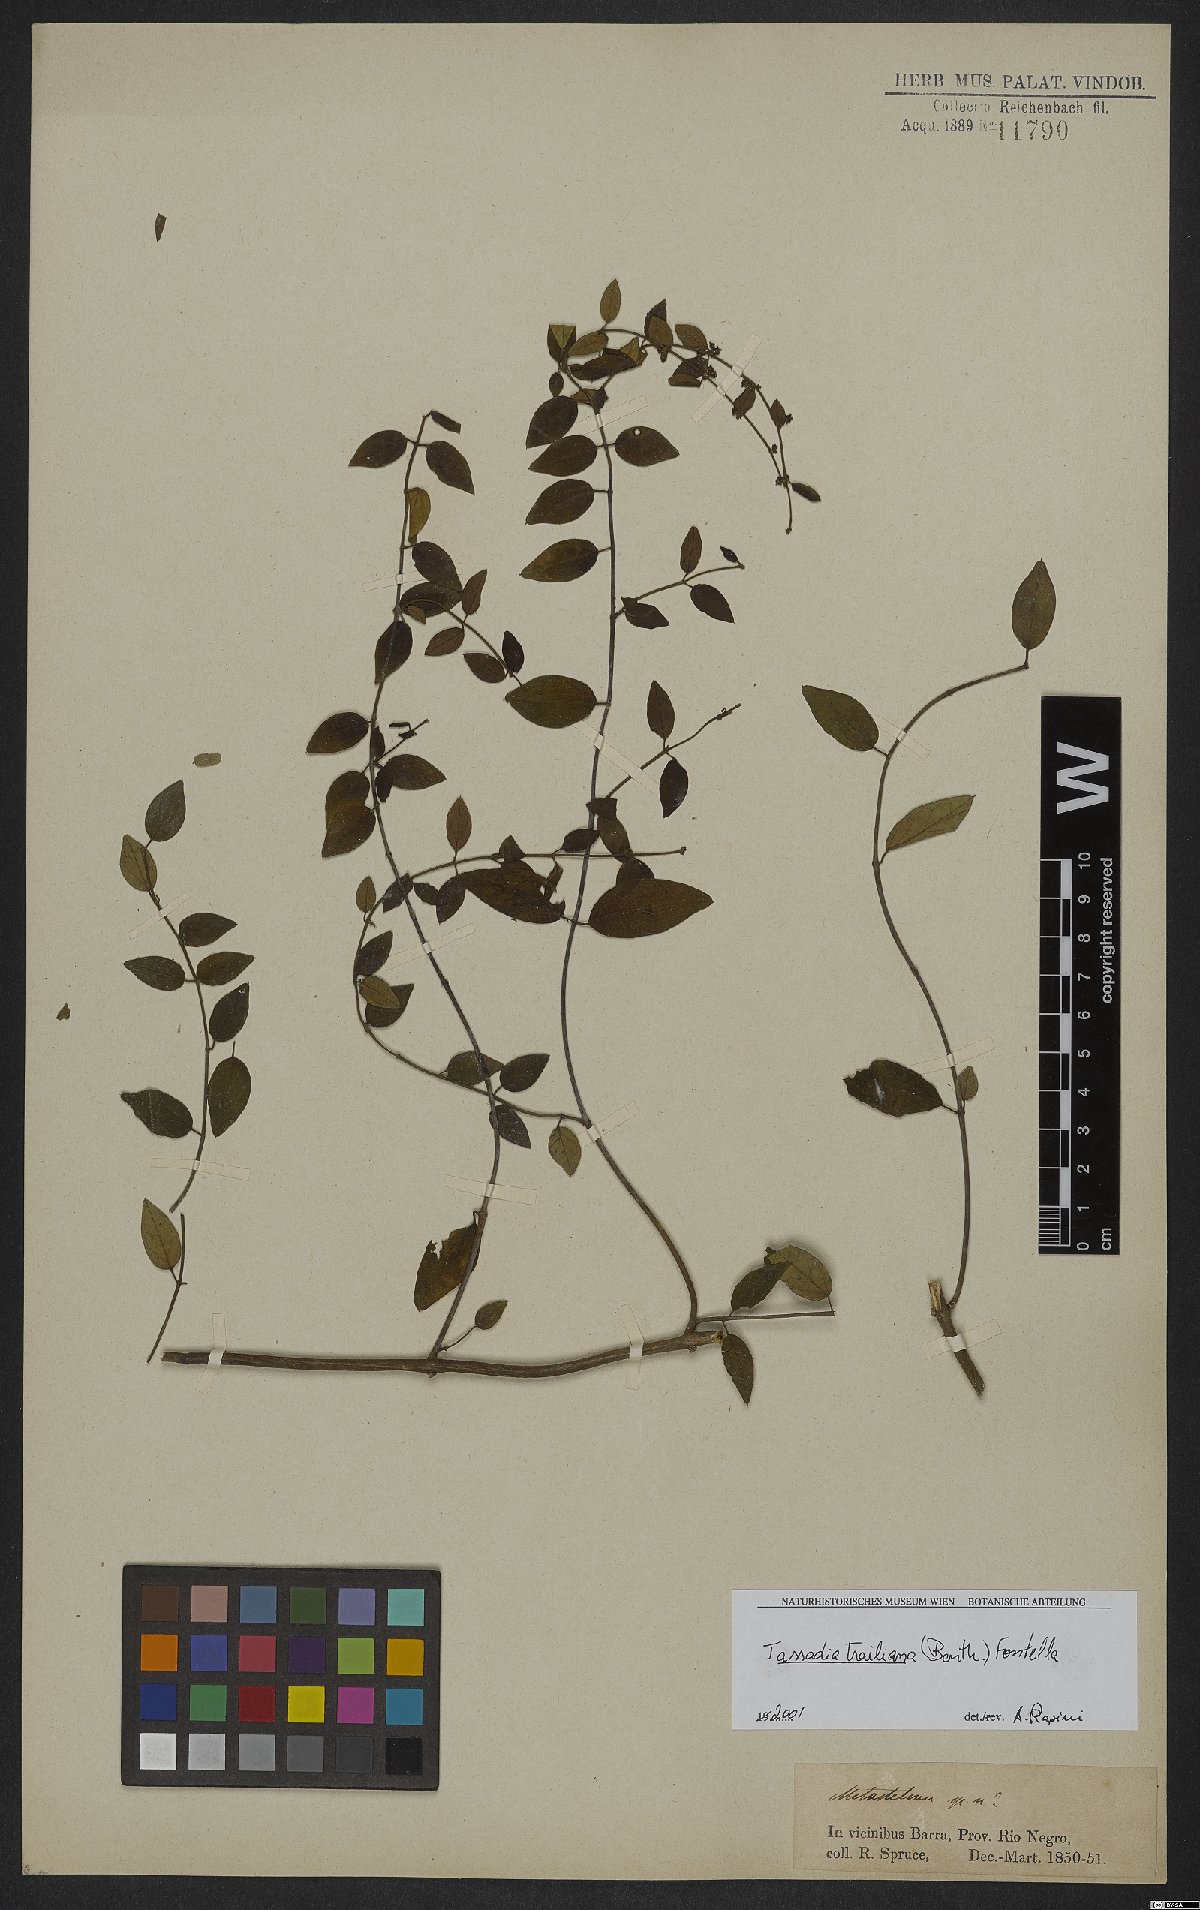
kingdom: Plantae
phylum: Tracheophyta
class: Magnoliopsida
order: Gentianales
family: Apocynaceae
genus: Tassadia
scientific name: Tassadia trailiana
